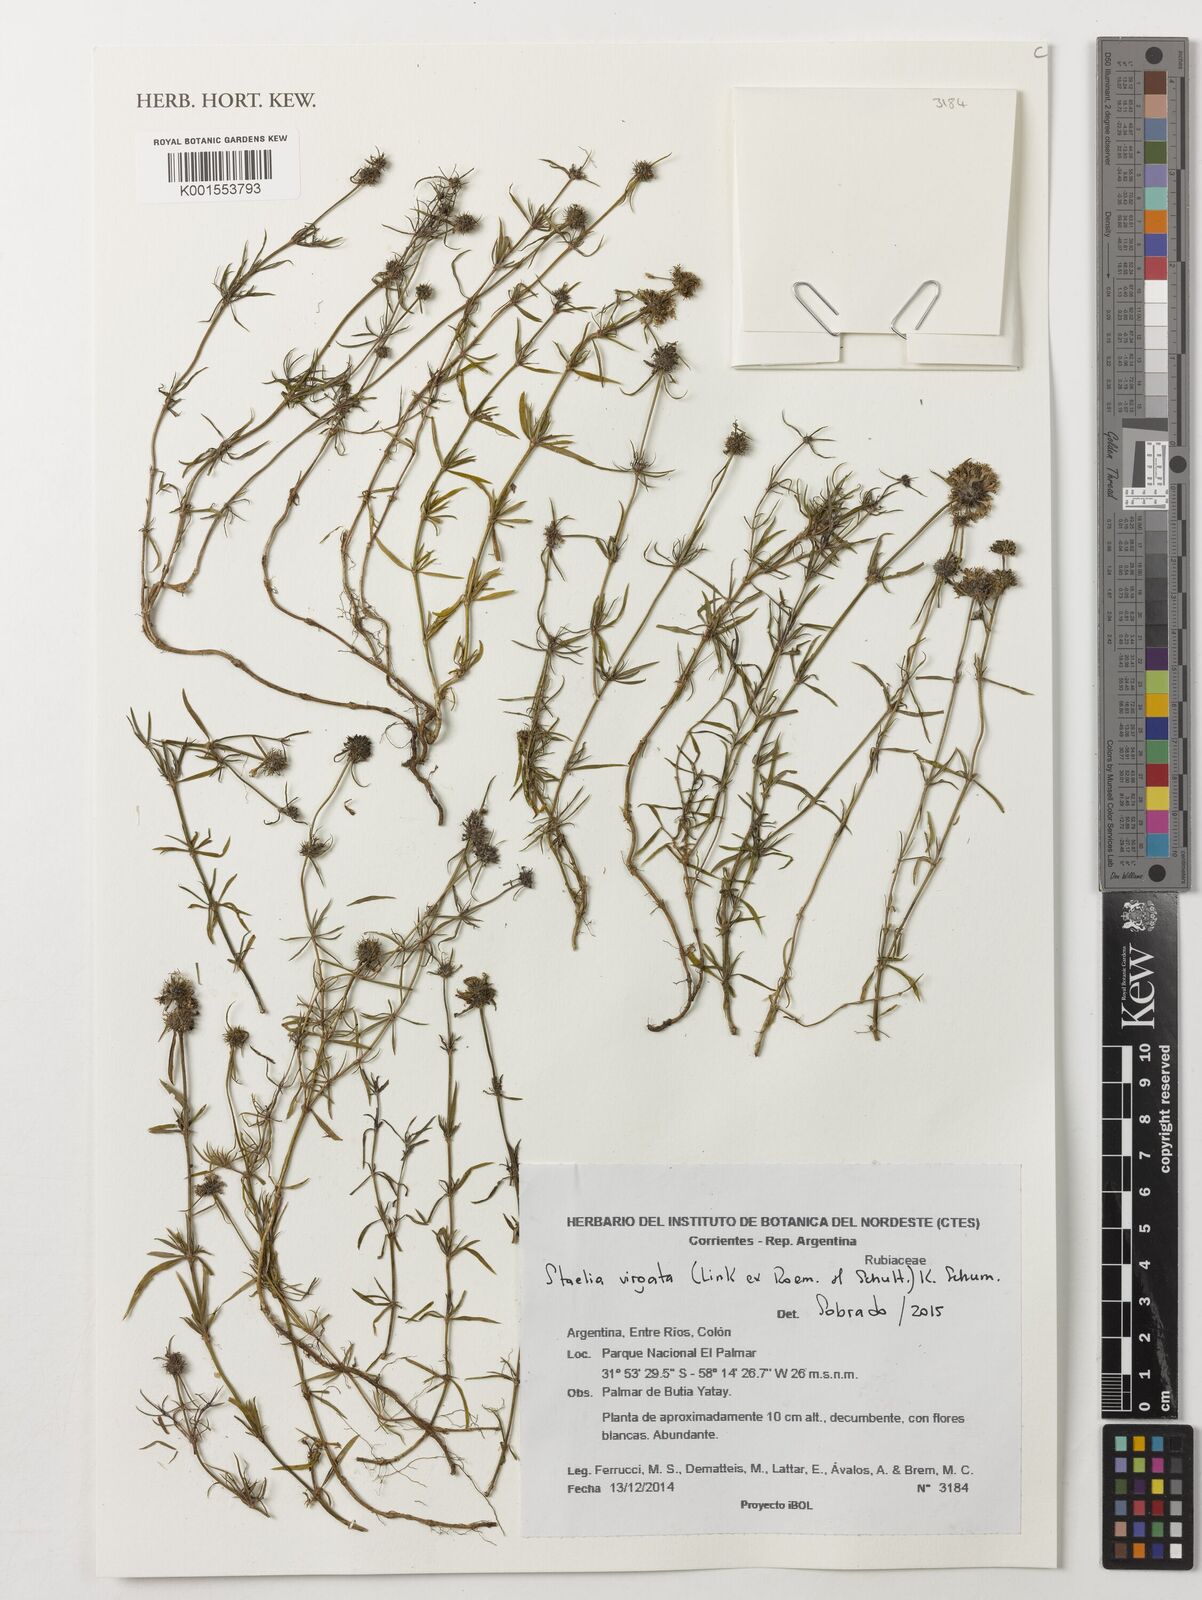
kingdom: Plantae
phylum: Tracheophyta
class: Magnoliopsida
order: Gentianales
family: Rubiaceae
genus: Staelia
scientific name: Staelia virgata
